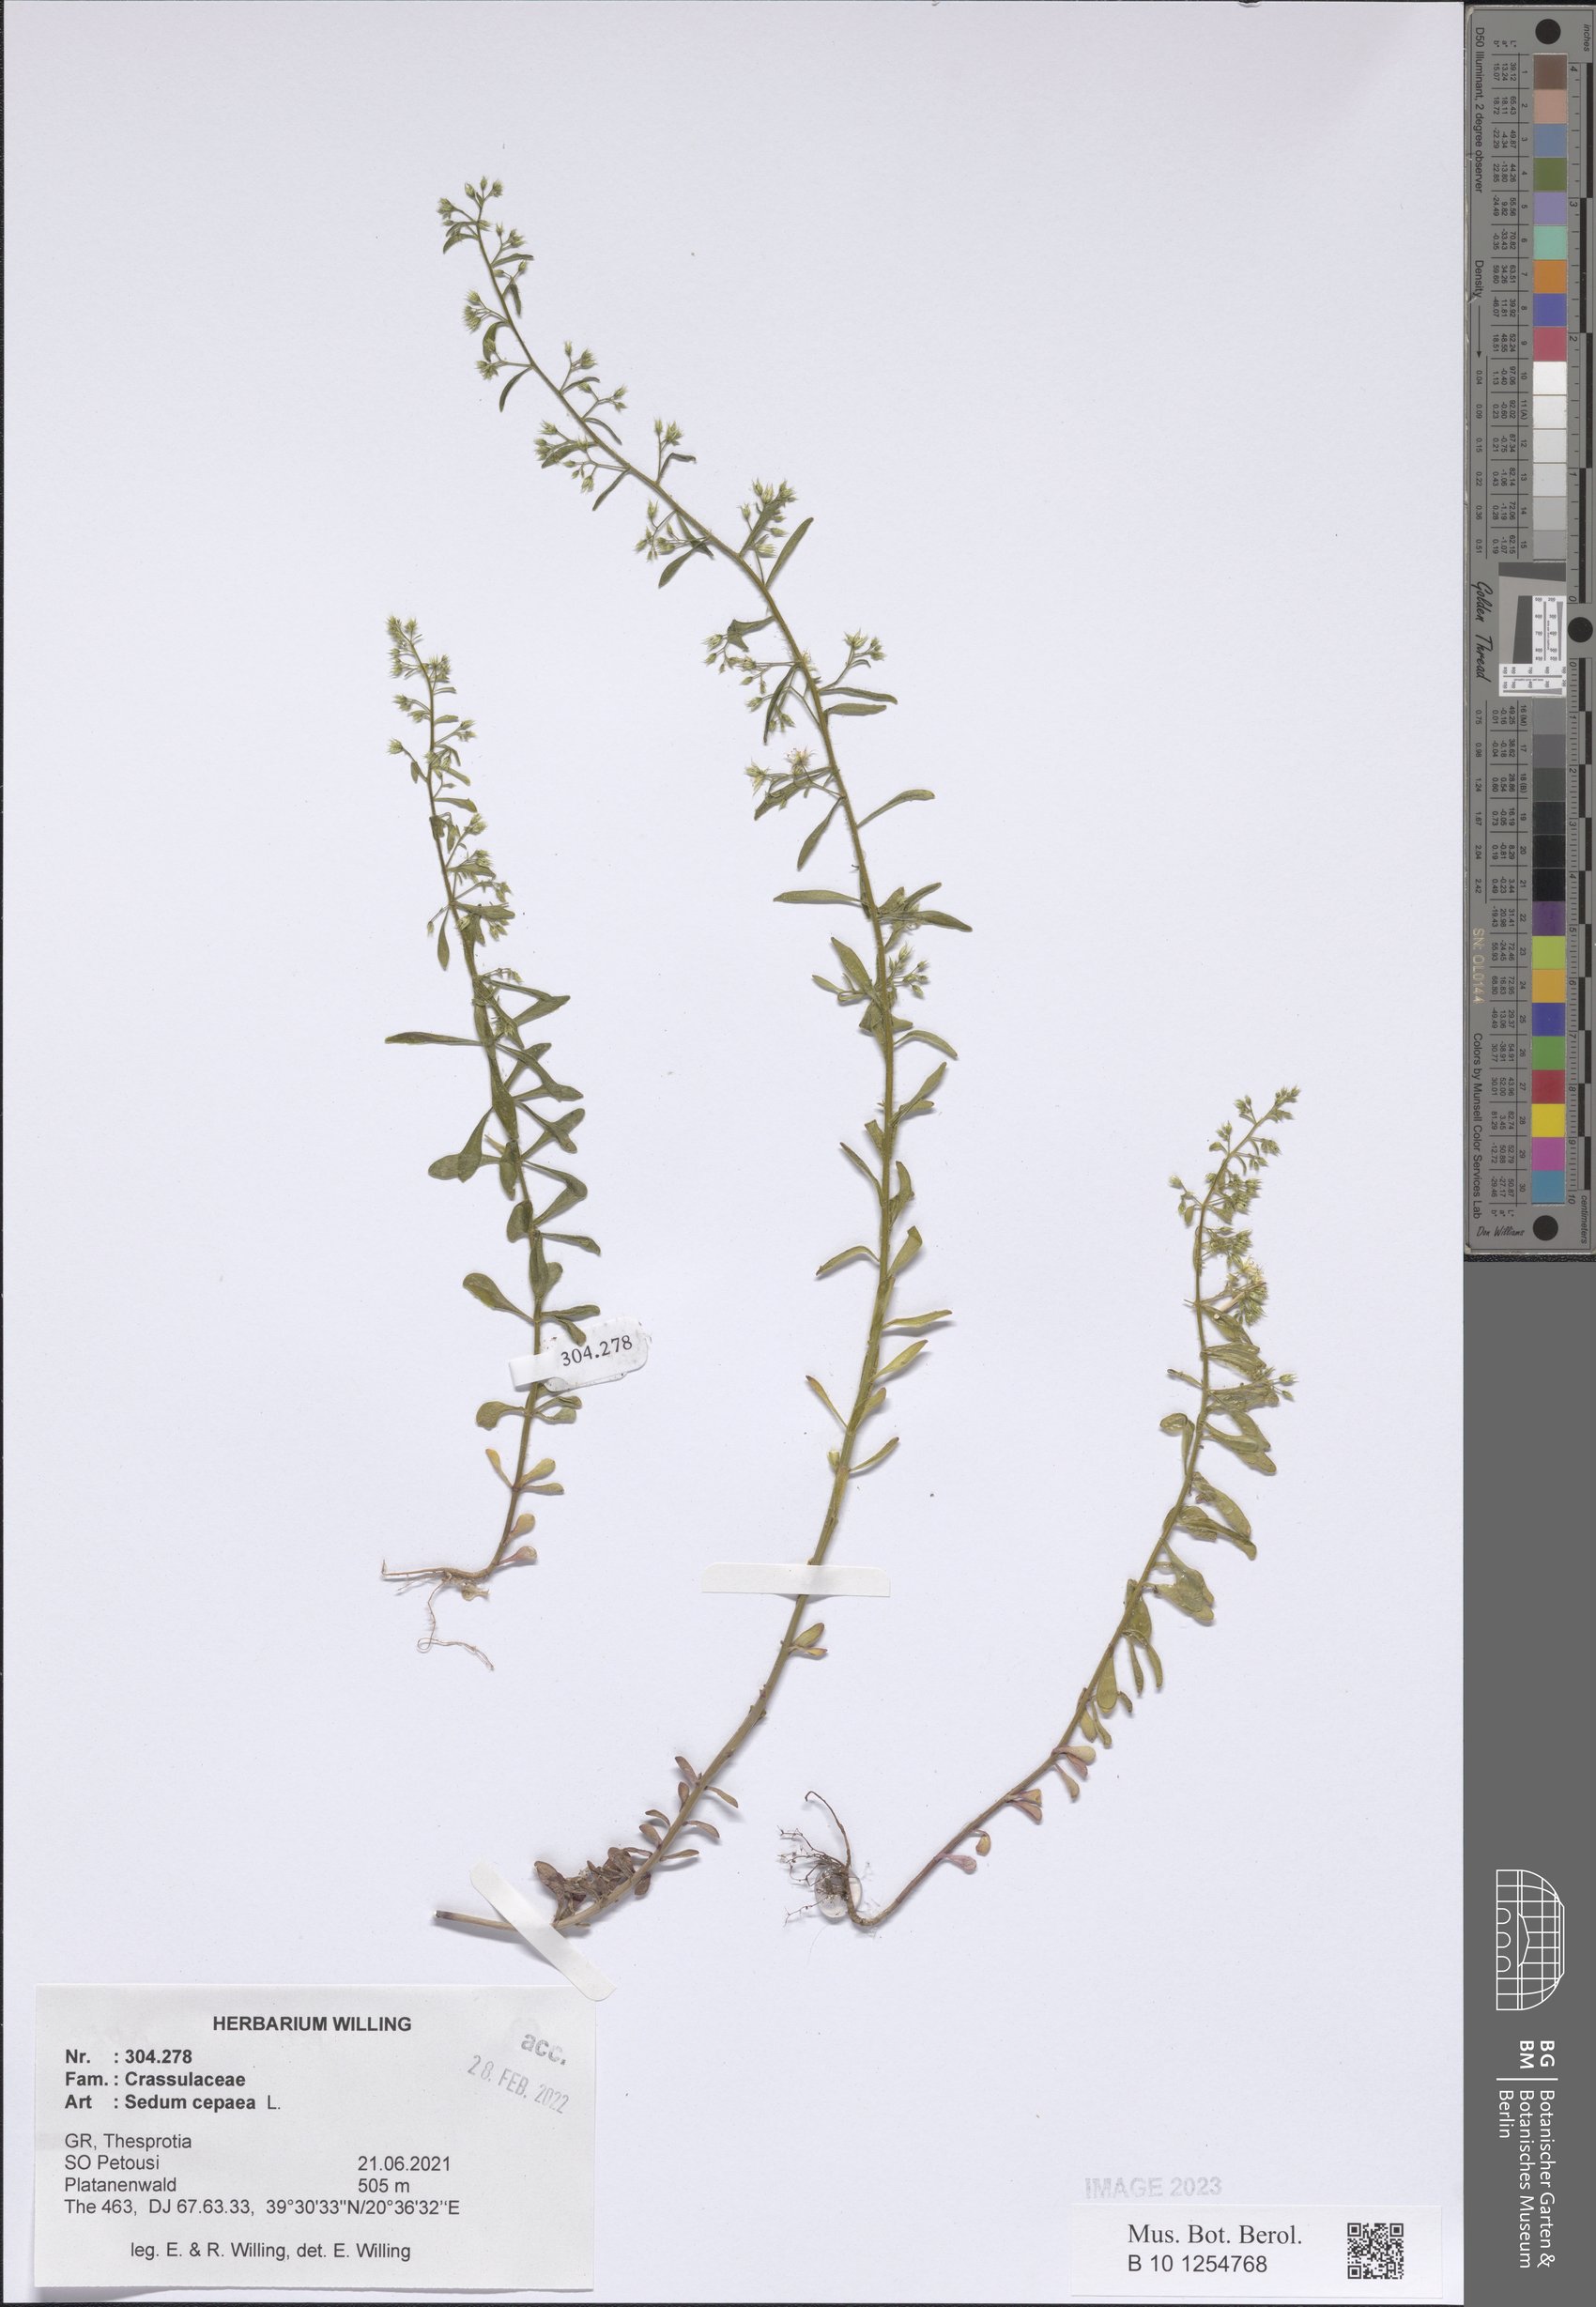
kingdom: Plantae
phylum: Tracheophyta
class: Magnoliopsida
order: Saxifragales
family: Crassulaceae
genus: Sedum
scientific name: Sedum cepaea
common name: Pink stonecrop
